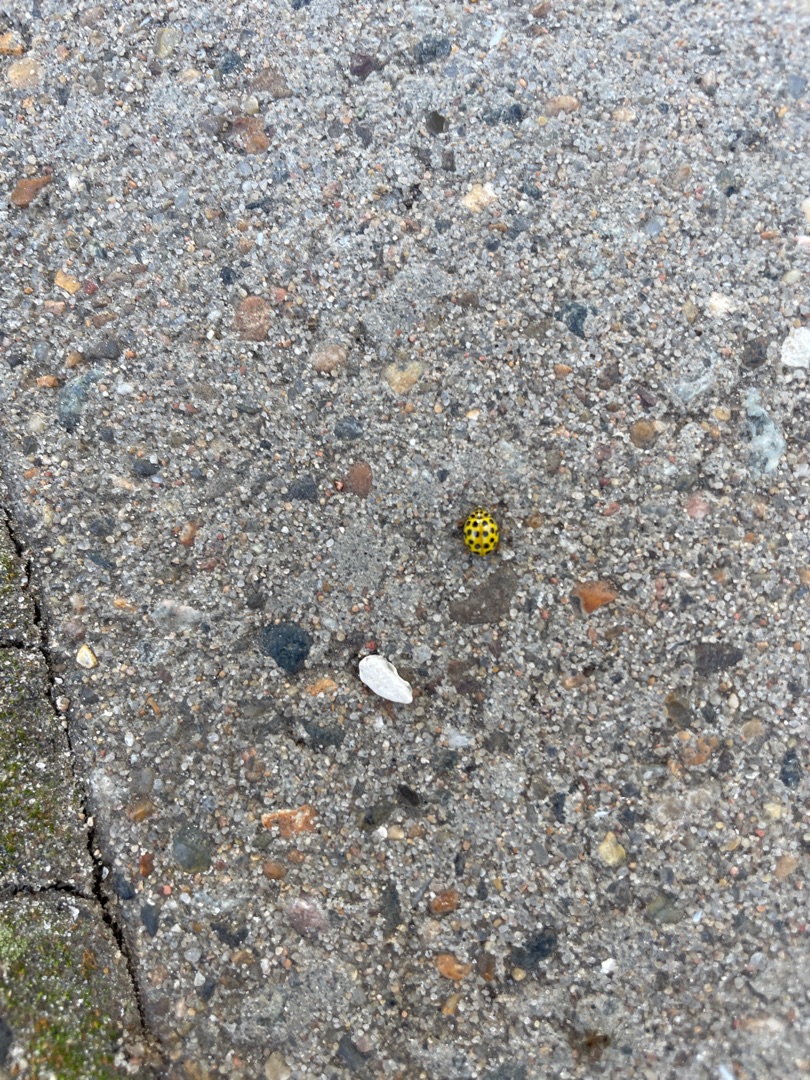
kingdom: Animalia
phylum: Arthropoda
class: Insecta
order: Coleoptera
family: Coccinellidae
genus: Psyllobora
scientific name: Psyllobora vigintiduopunctata
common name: Toogtyveplettet mariehøne
